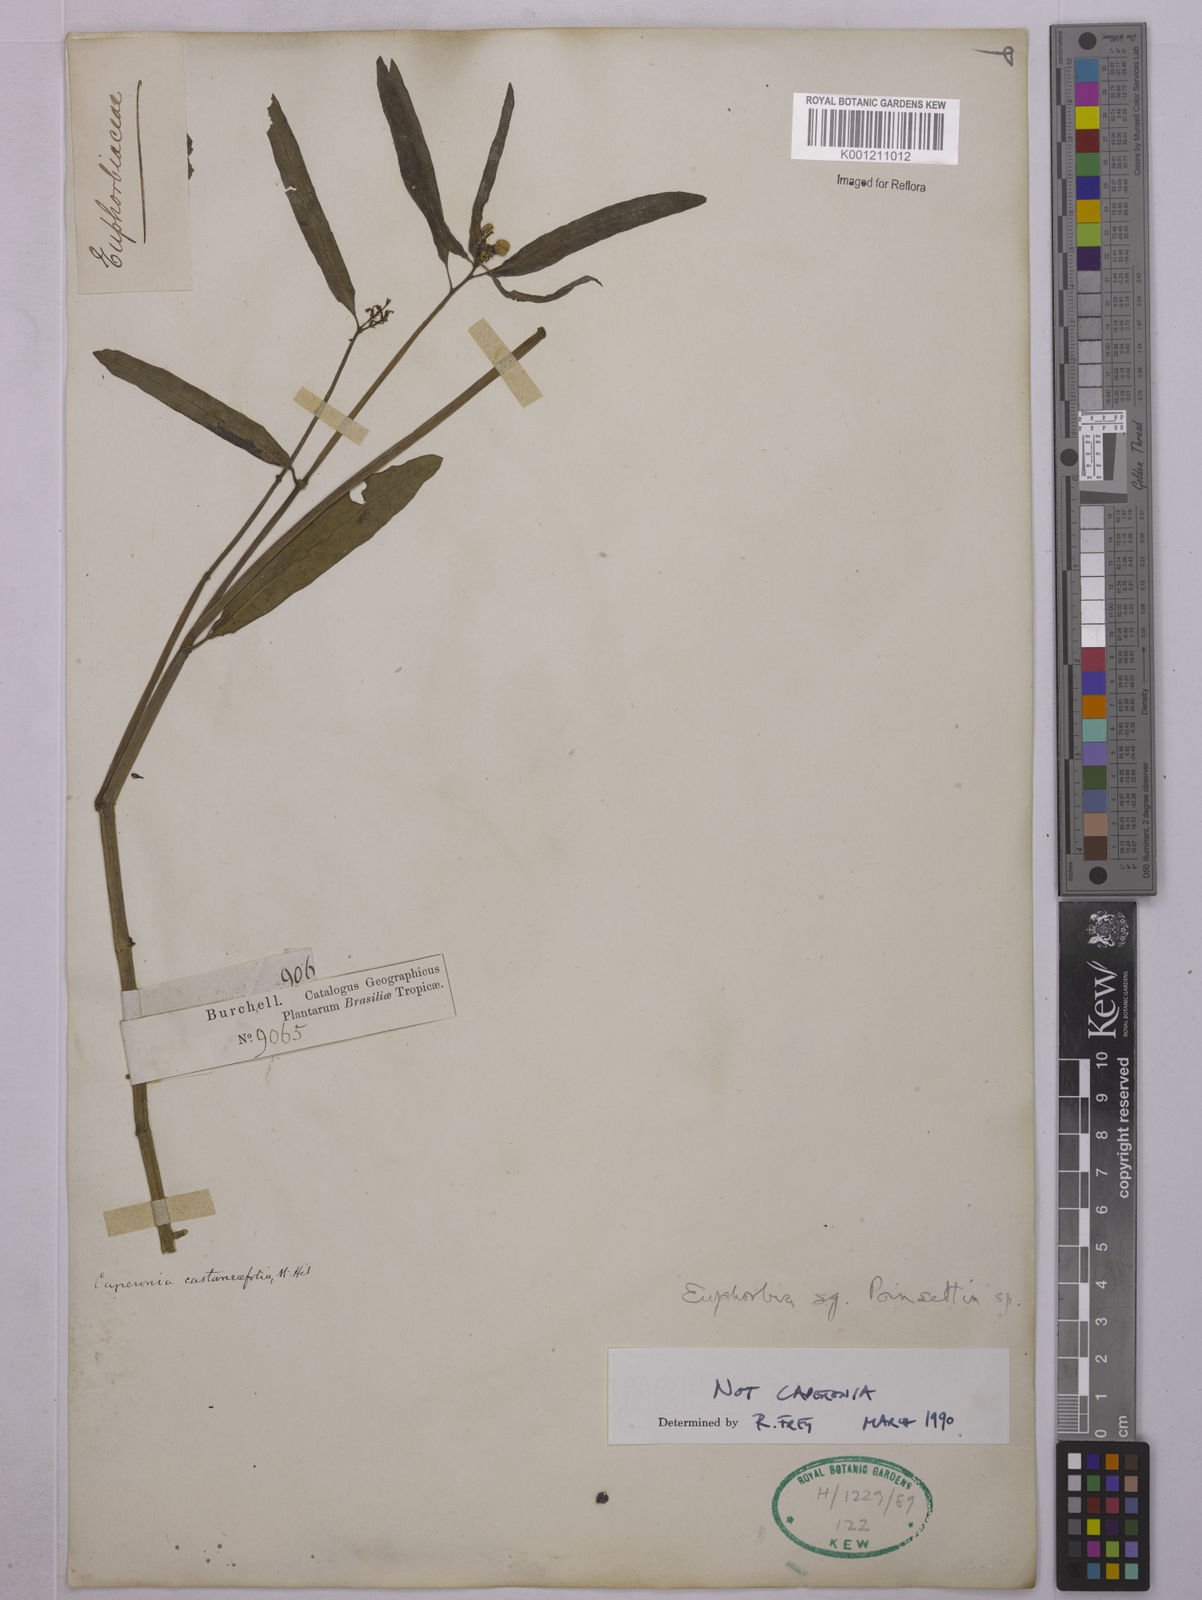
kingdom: Plantae
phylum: Tracheophyta
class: Magnoliopsida
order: Malpighiales
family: Euphorbiaceae
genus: Euphorbia
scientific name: Euphorbia
